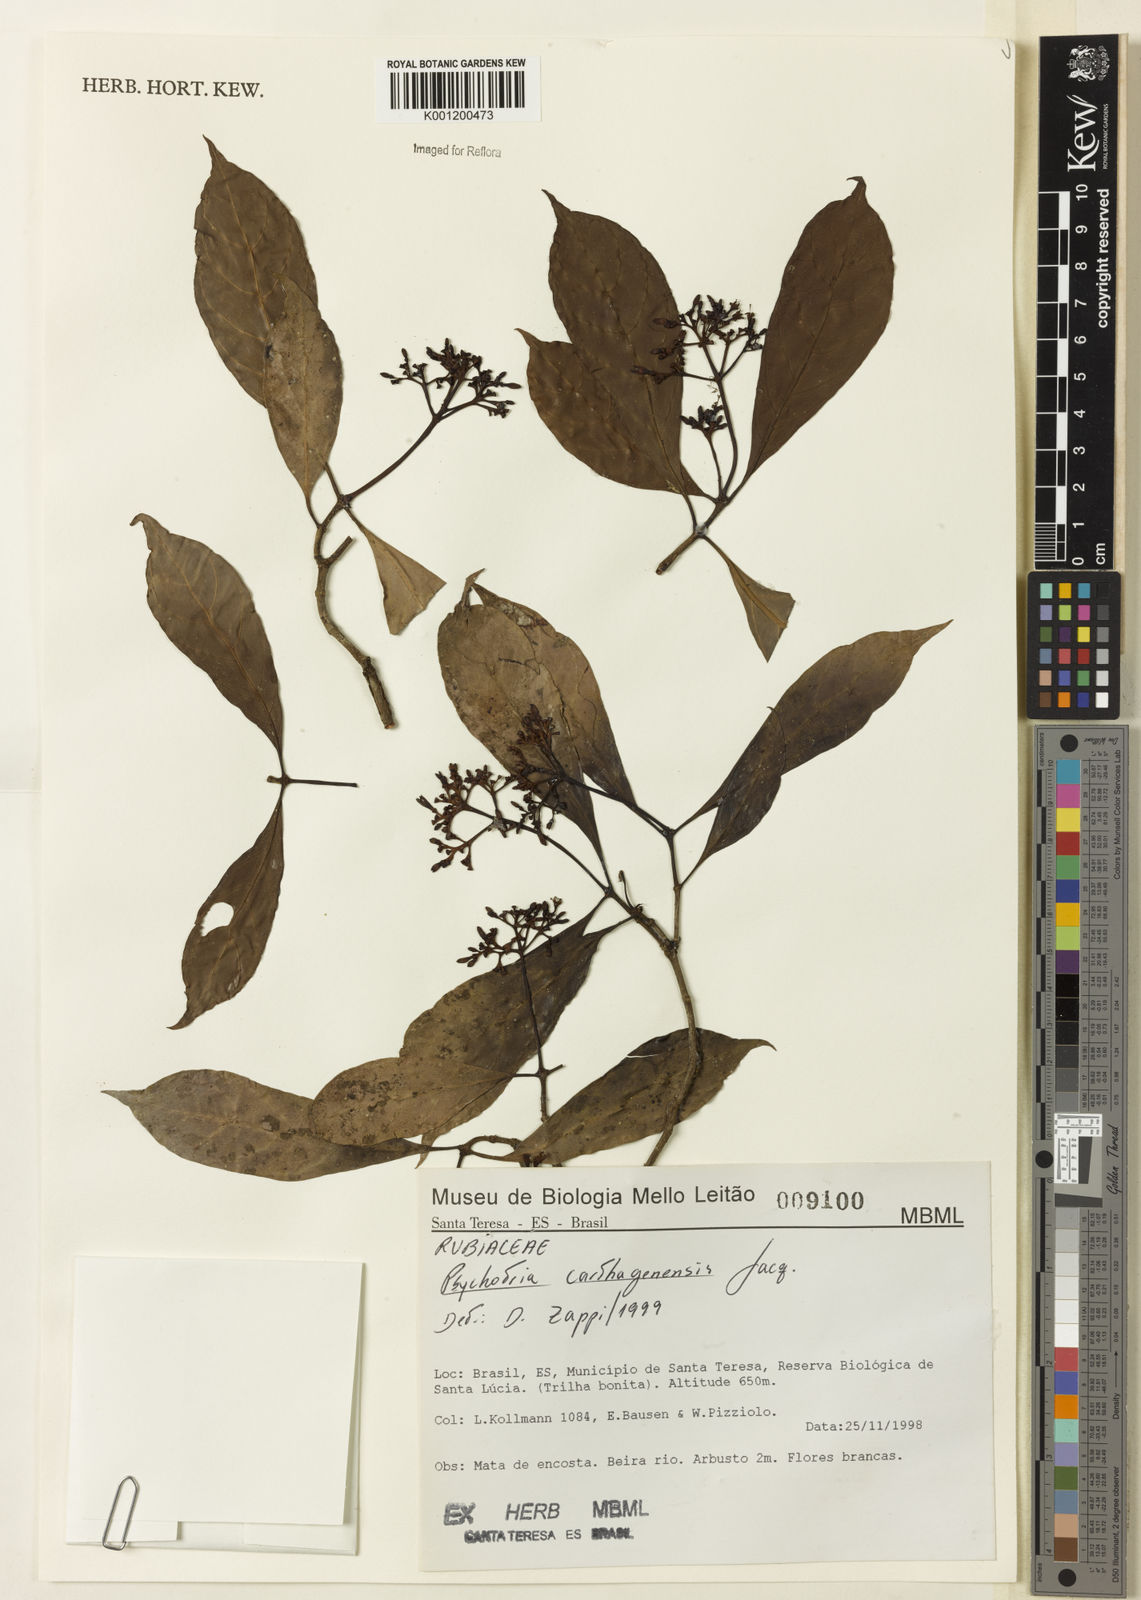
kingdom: Plantae
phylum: Tracheophyta
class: Magnoliopsida
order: Gentianales
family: Rubiaceae
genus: Psychotria
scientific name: Psychotria carthagenensis
